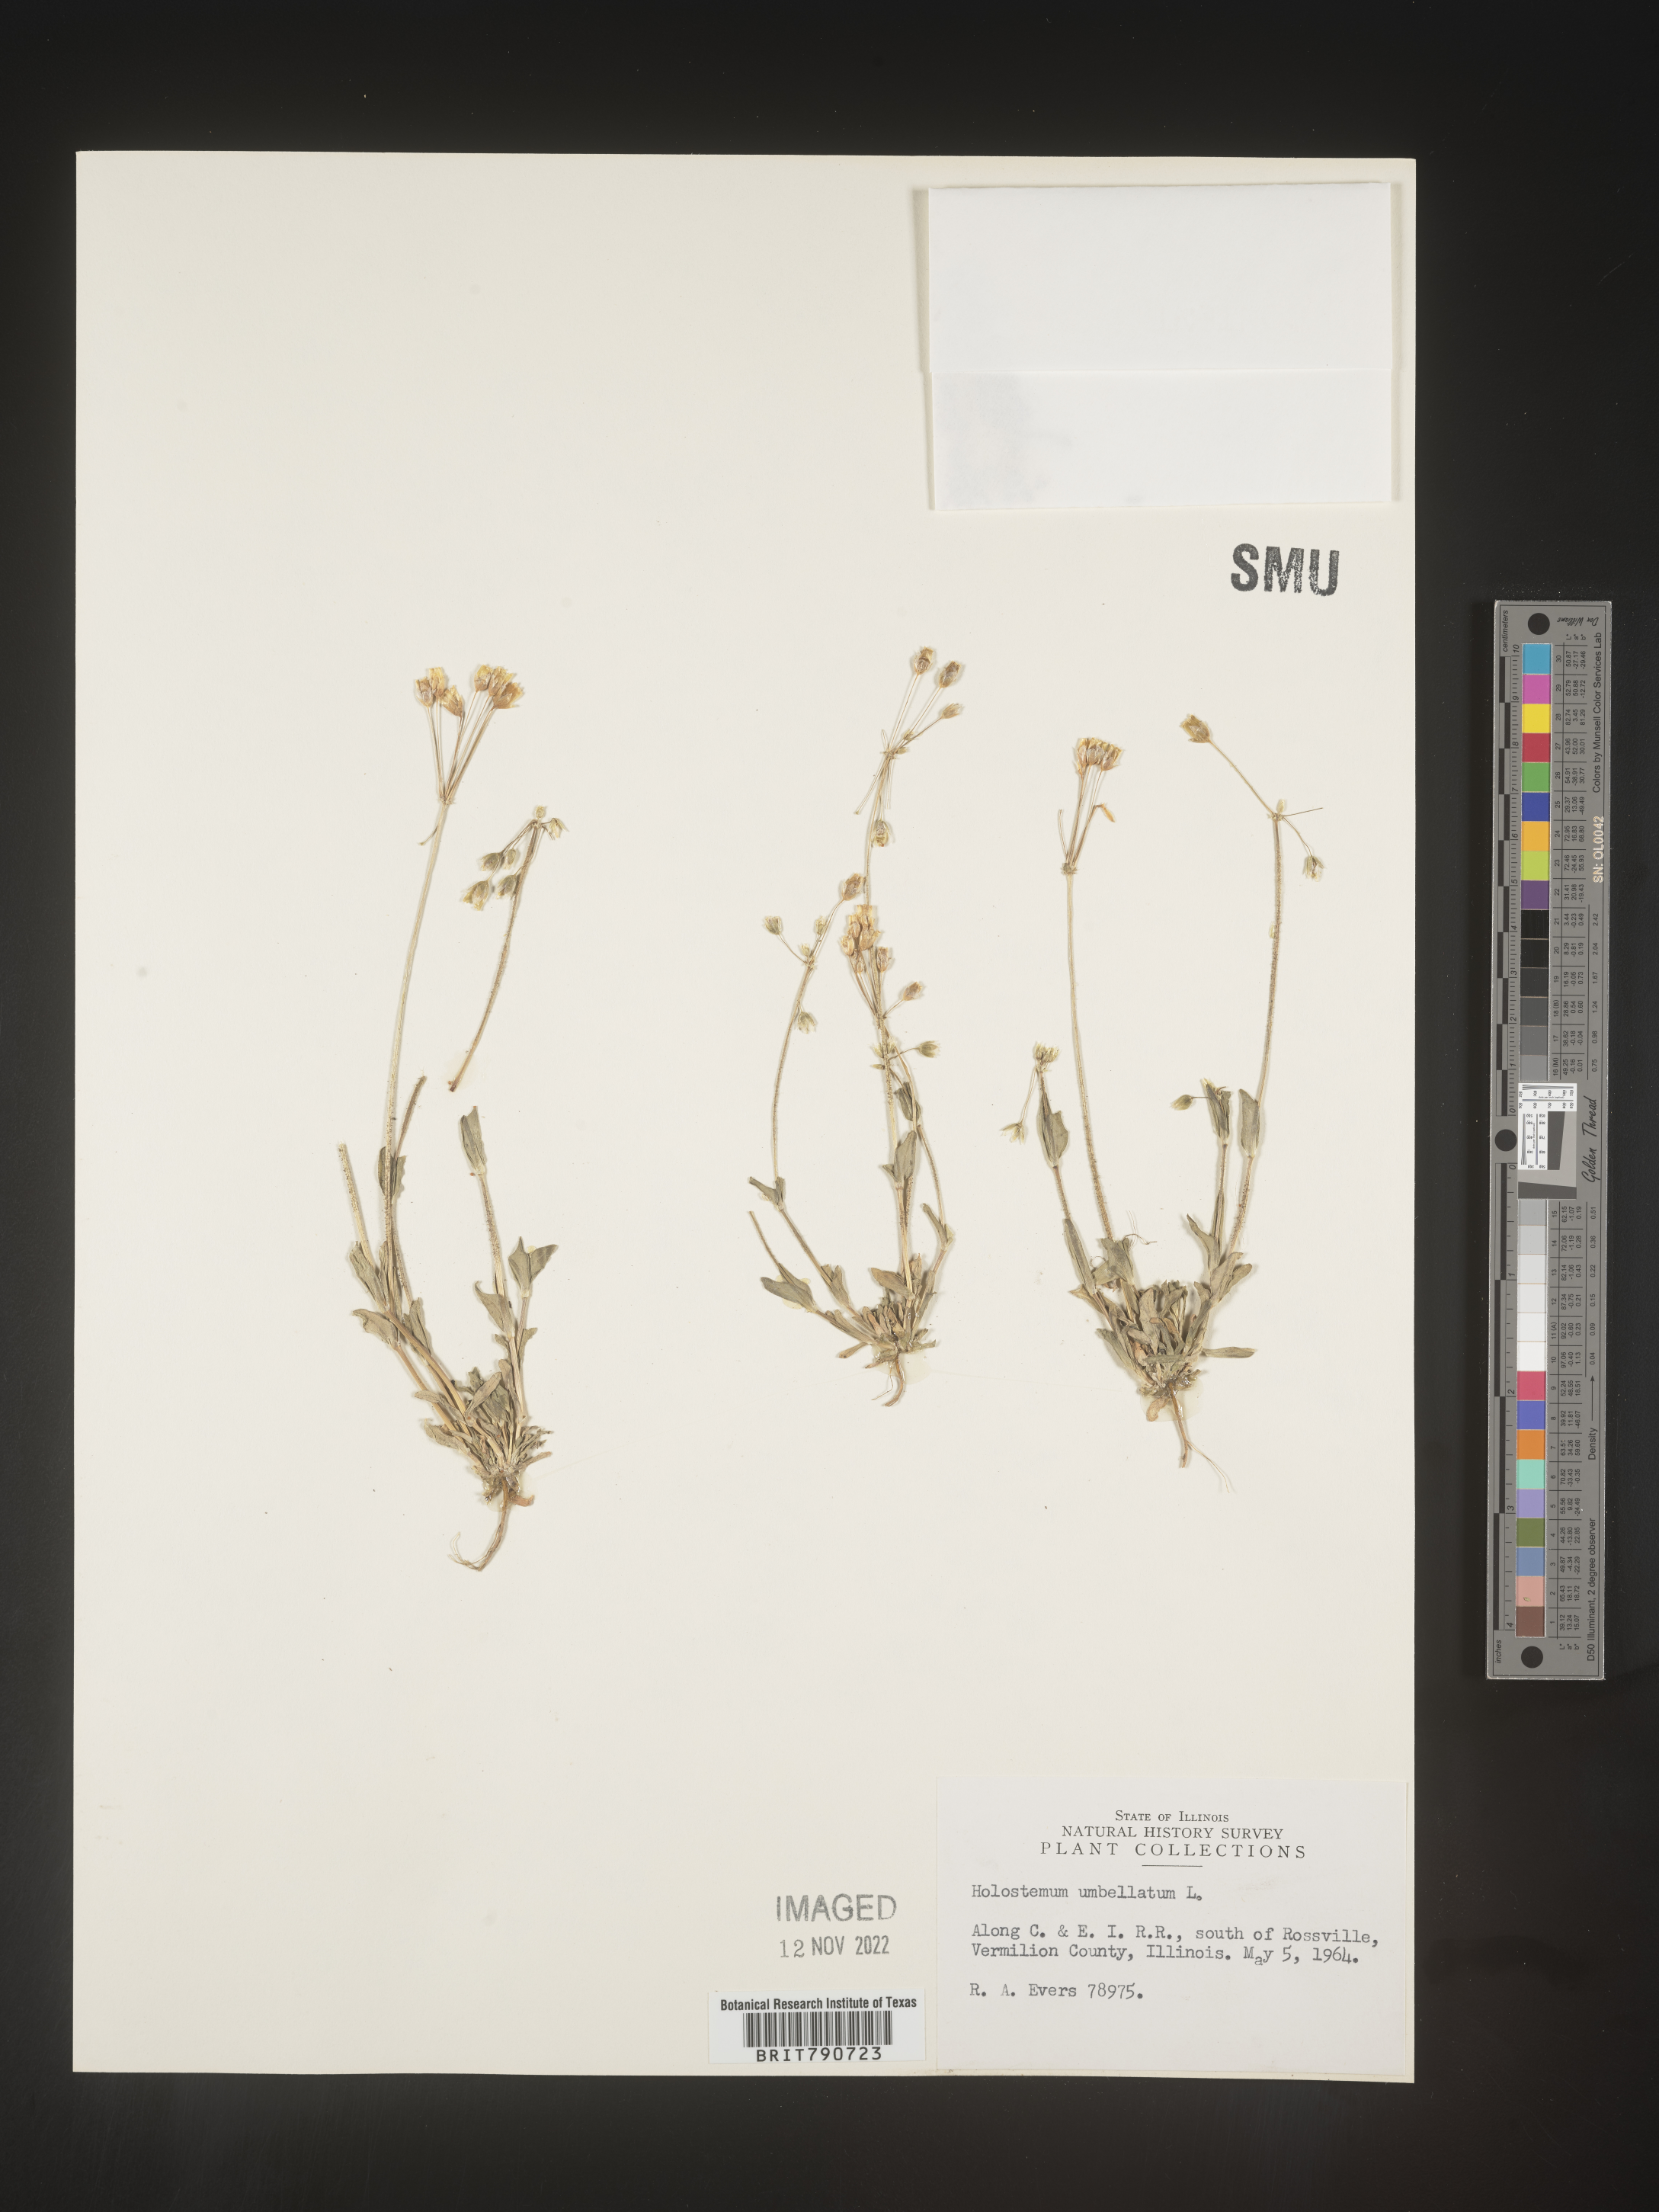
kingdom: Plantae
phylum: Tracheophyta
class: Magnoliopsida
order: Caryophyllales
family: Caryophyllaceae
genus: Holosteum
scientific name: Holosteum
